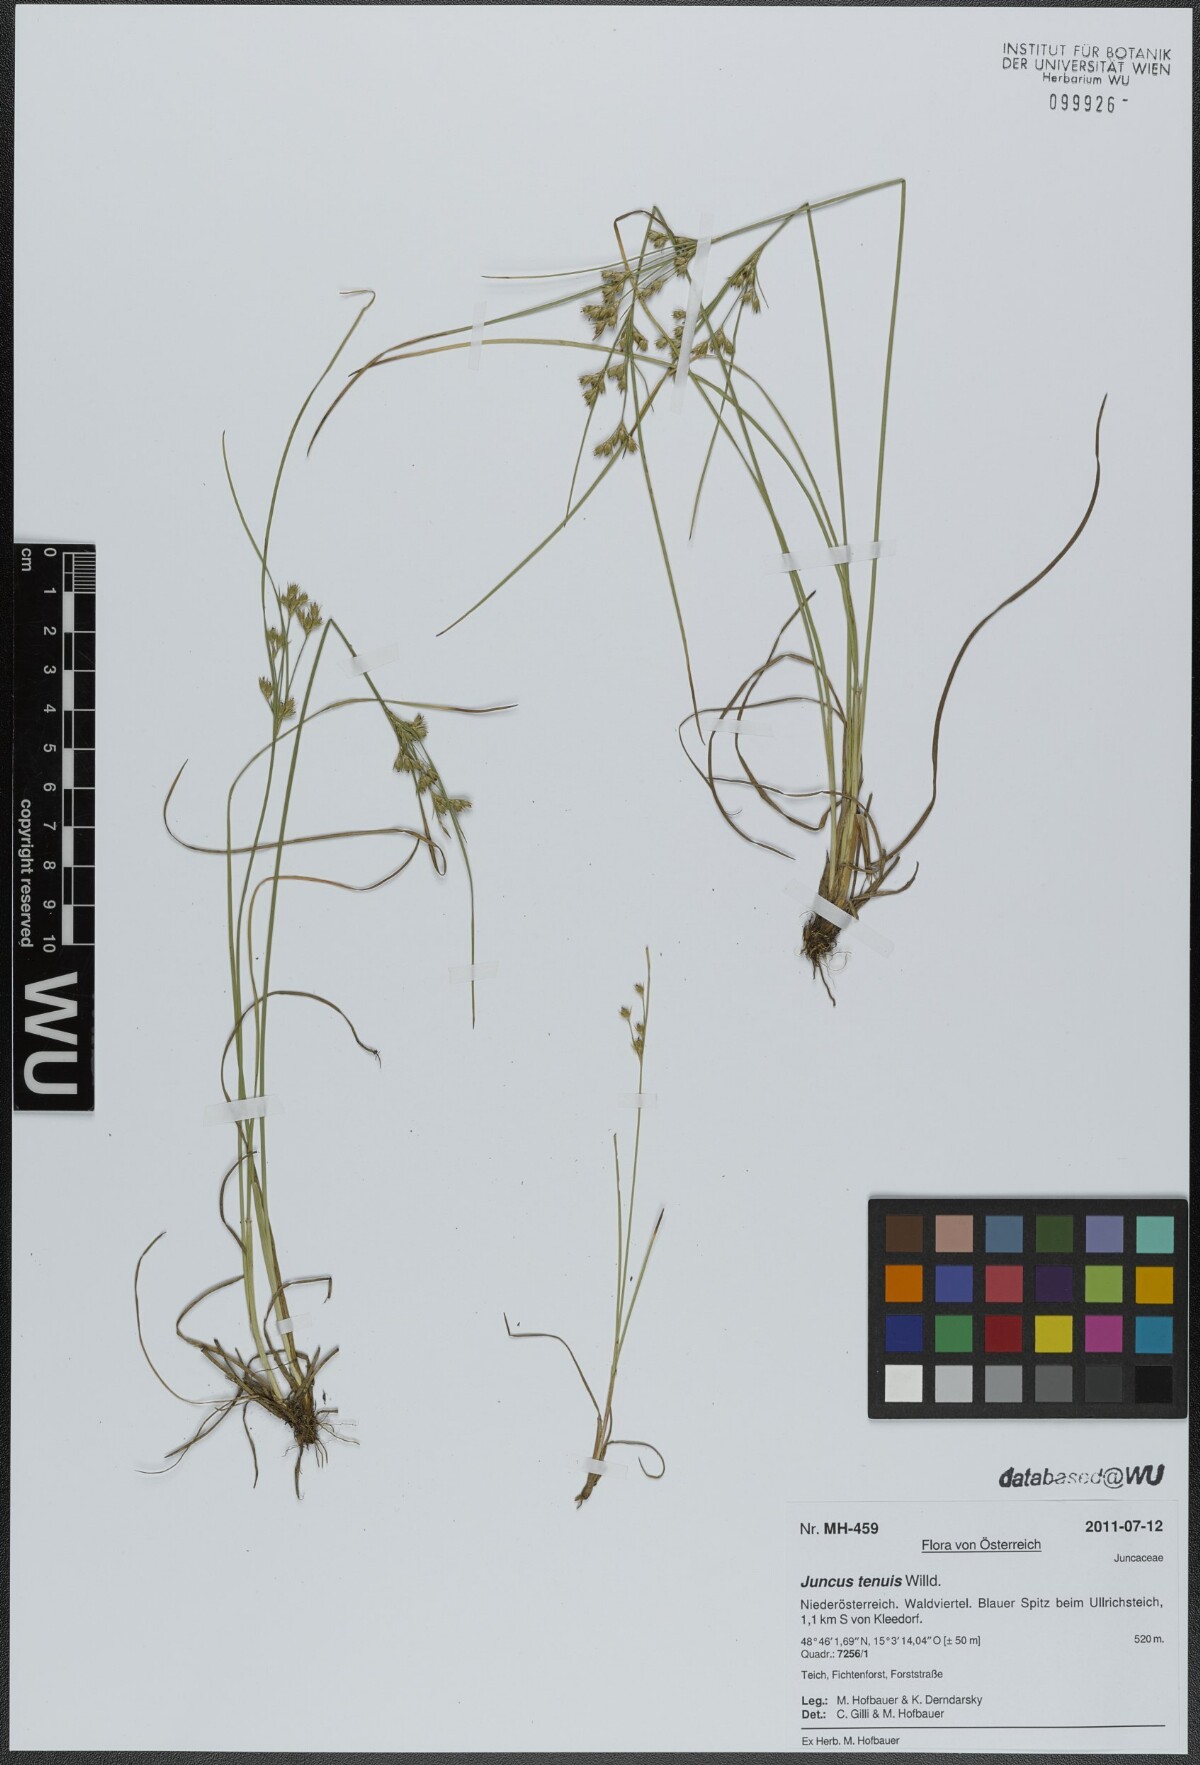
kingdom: Plantae
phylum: Tracheophyta
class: Liliopsida
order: Poales
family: Juncaceae
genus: Juncus
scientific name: Juncus tenuis
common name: Slender rush
